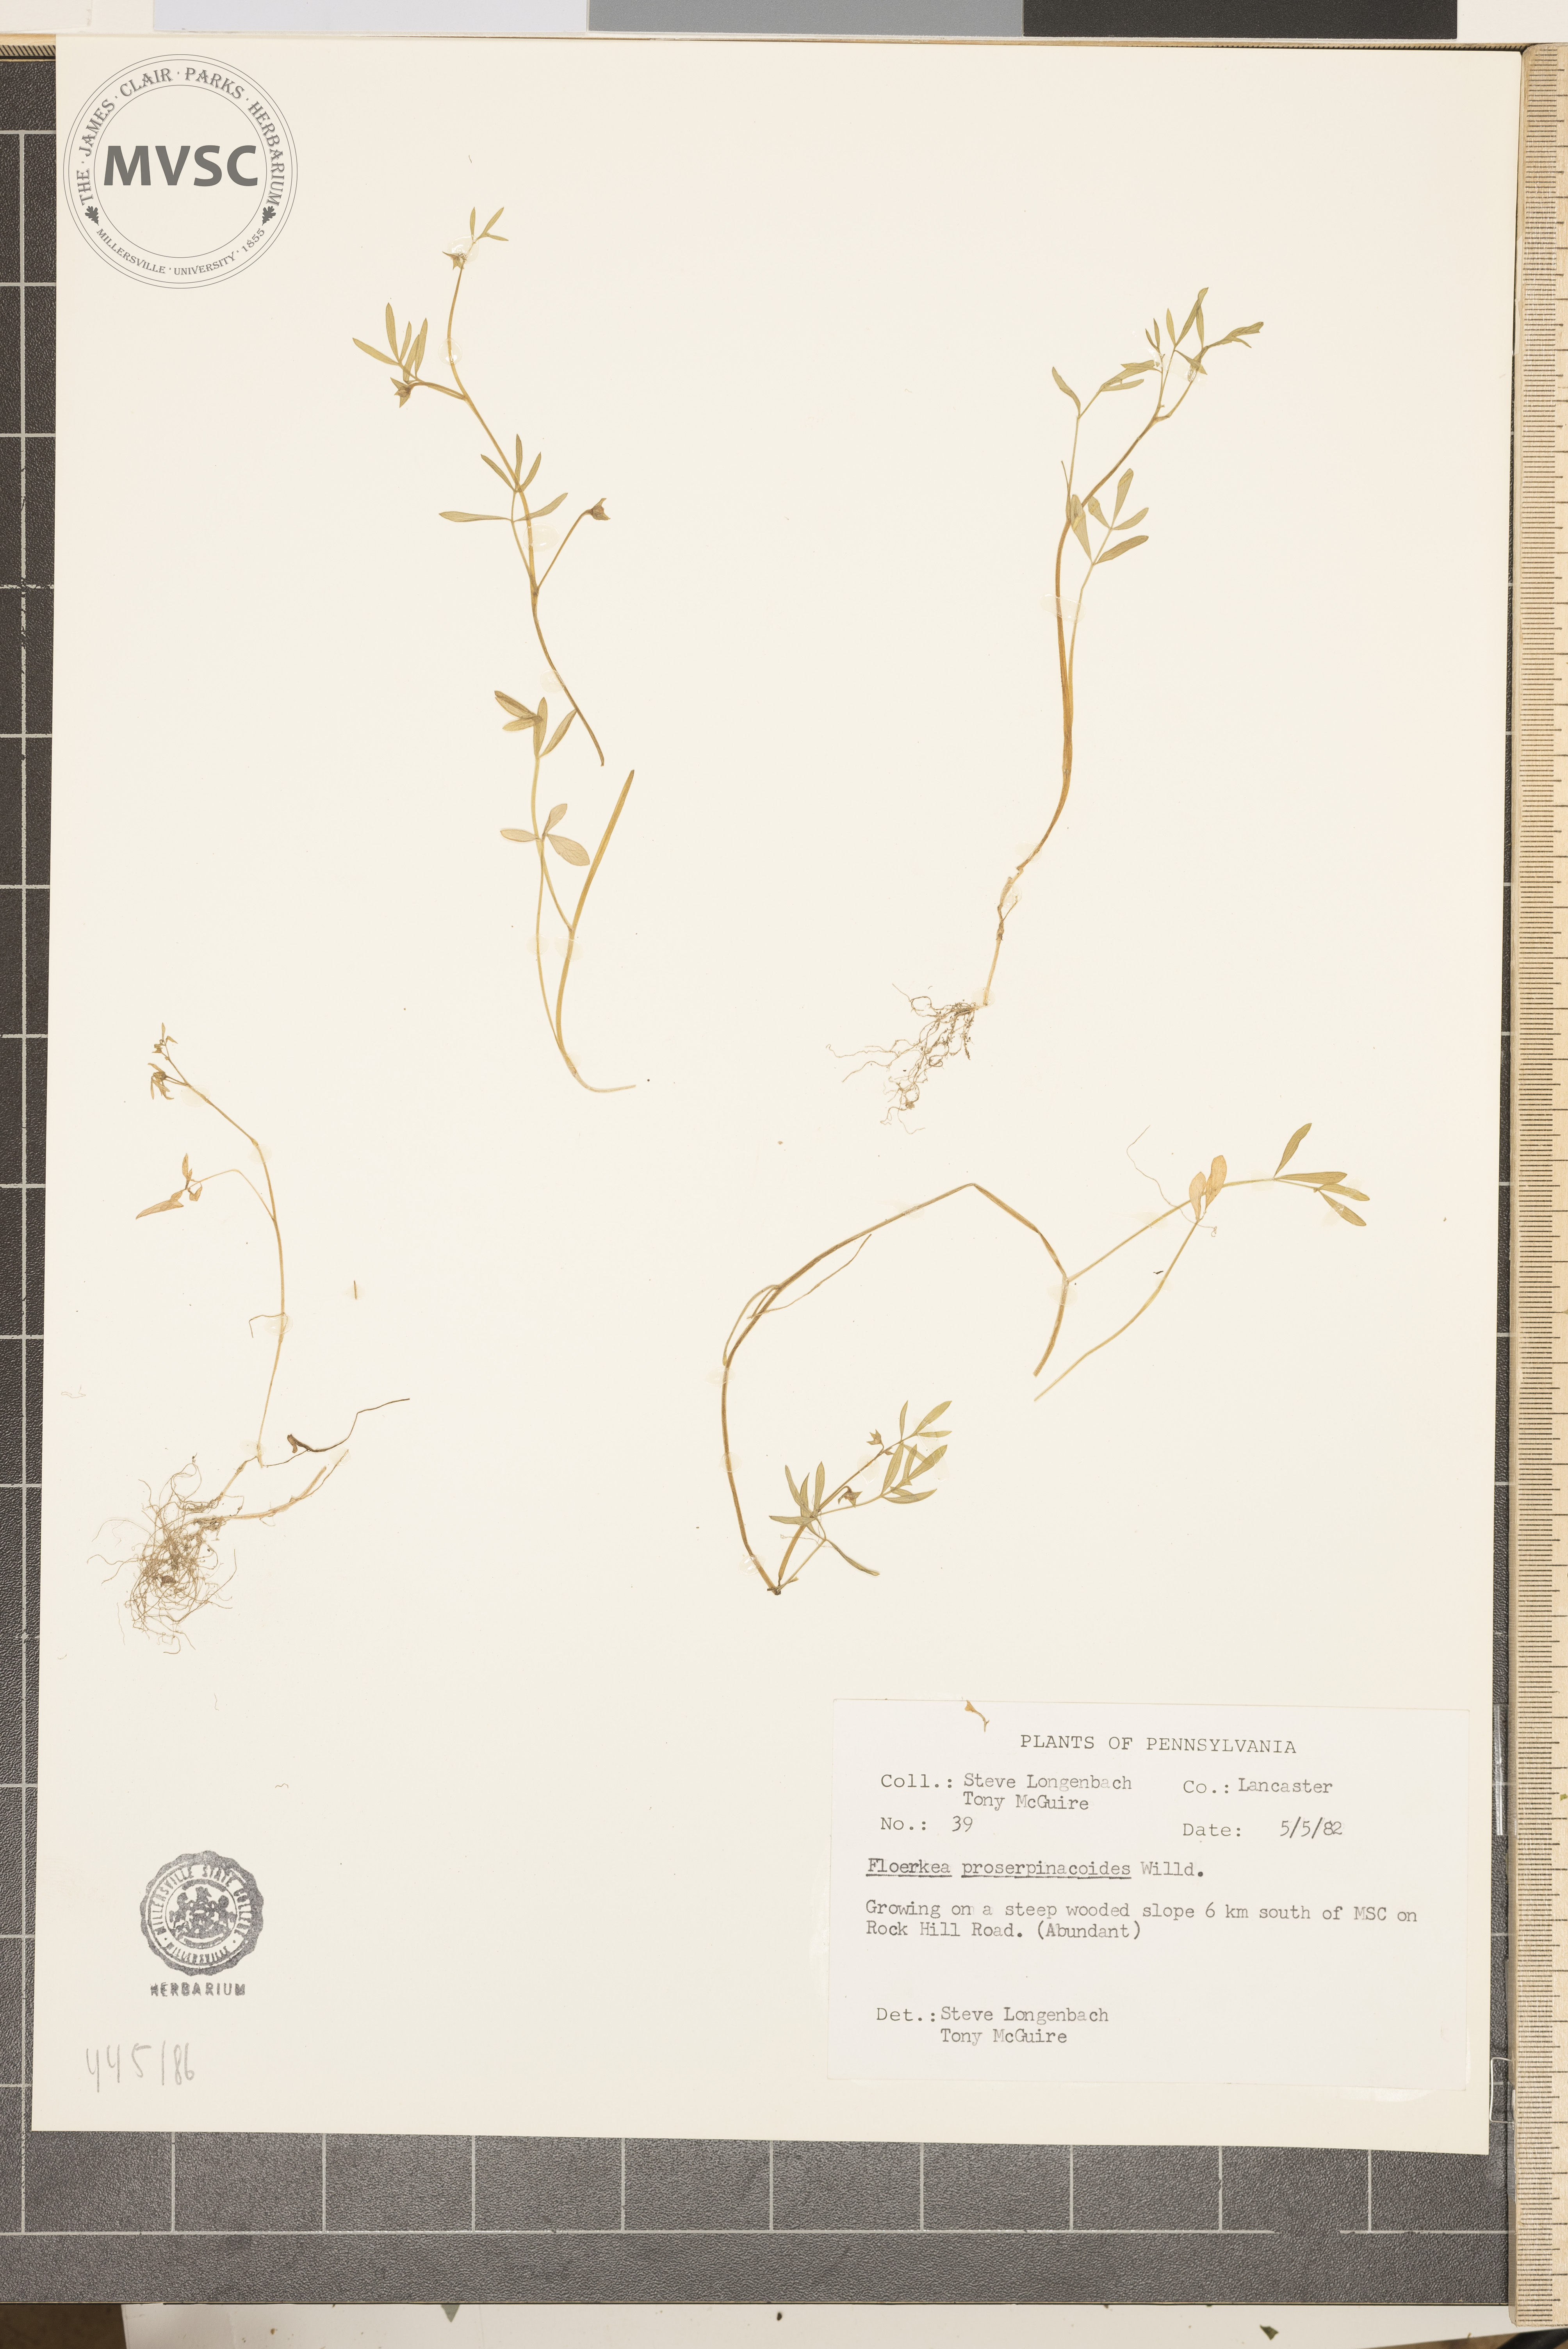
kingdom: Plantae
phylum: Tracheophyta
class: Magnoliopsida
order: Brassicales
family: Limnanthaceae
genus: Floerkea
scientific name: Floerkea proserpinacoides
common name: False mermaid
